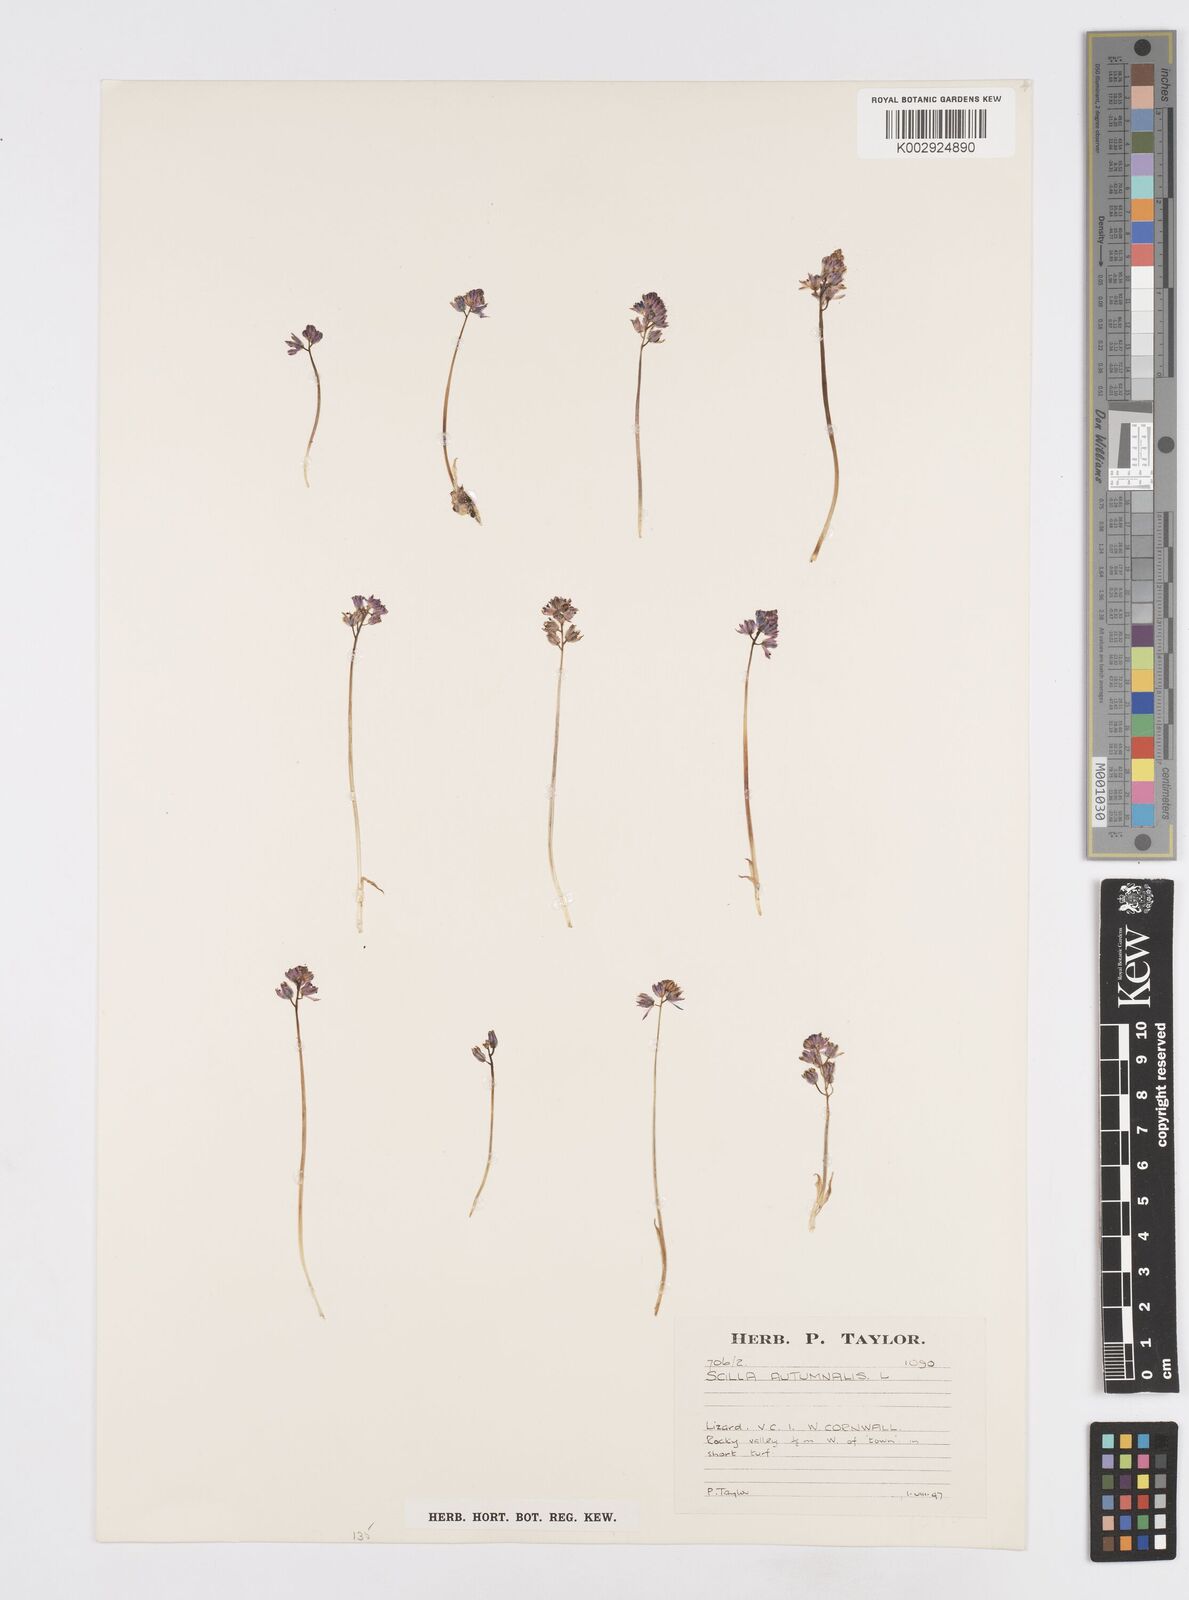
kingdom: Plantae
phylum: Tracheophyta
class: Liliopsida
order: Asparagales
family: Asparagaceae
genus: Prospero
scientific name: Prospero autumnale
